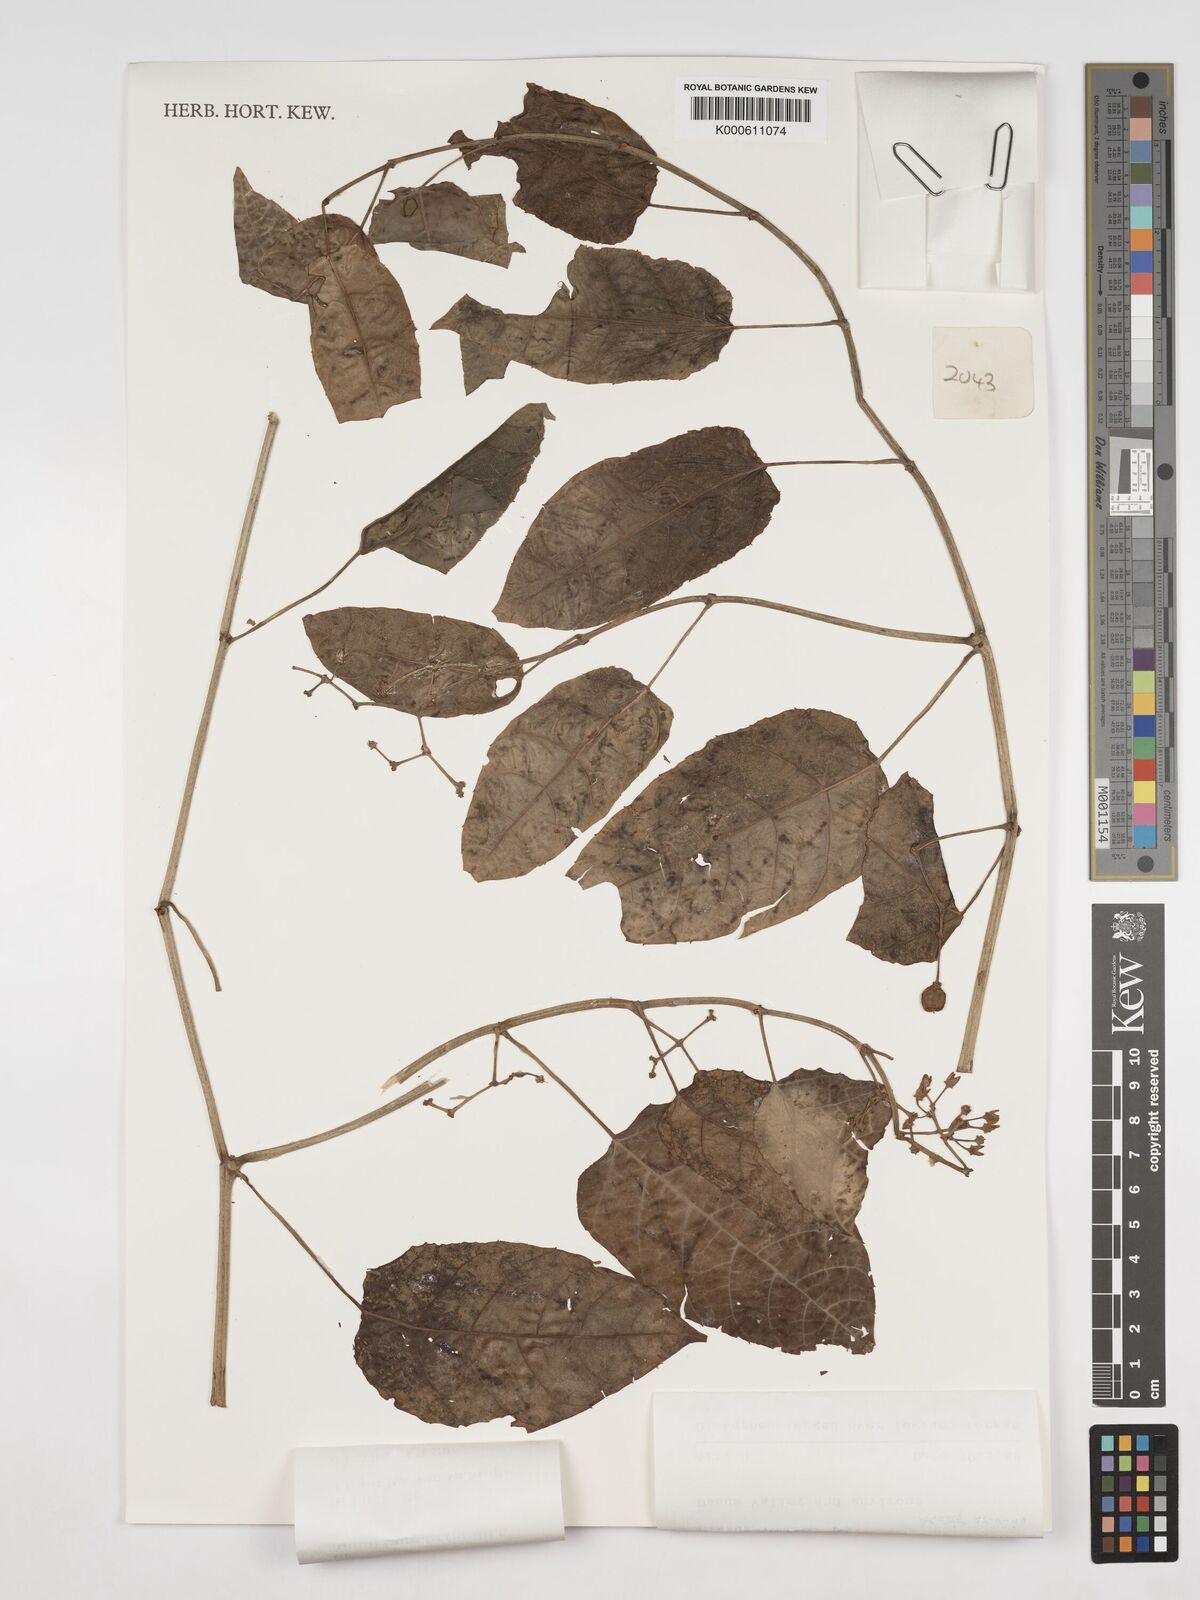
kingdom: Plantae
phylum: Tracheophyta
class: Magnoliopsida
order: Vitales
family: Vitaceae
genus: Cissus
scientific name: Cissus nodosa
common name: Grape ivy
